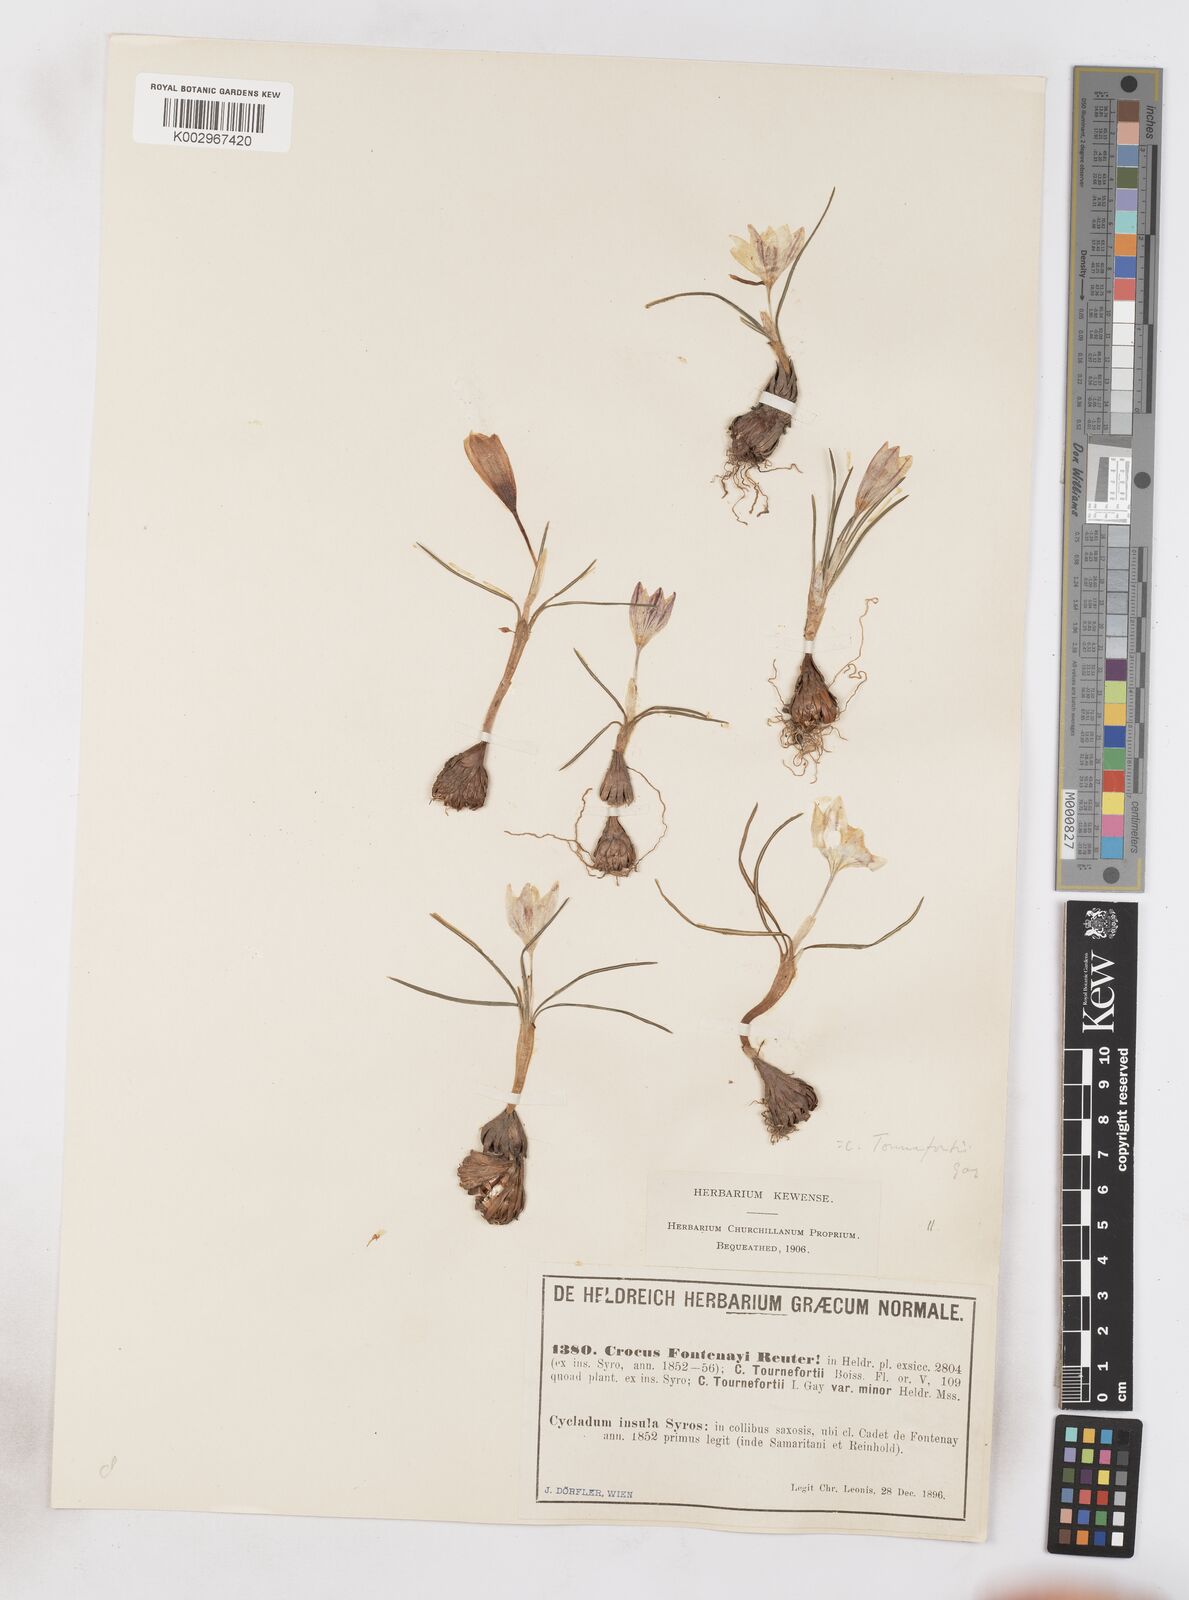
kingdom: Plantae
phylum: Tracheophyta
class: Liliopsida
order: Asparagales
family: Iridaceae
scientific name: Iridaceae
